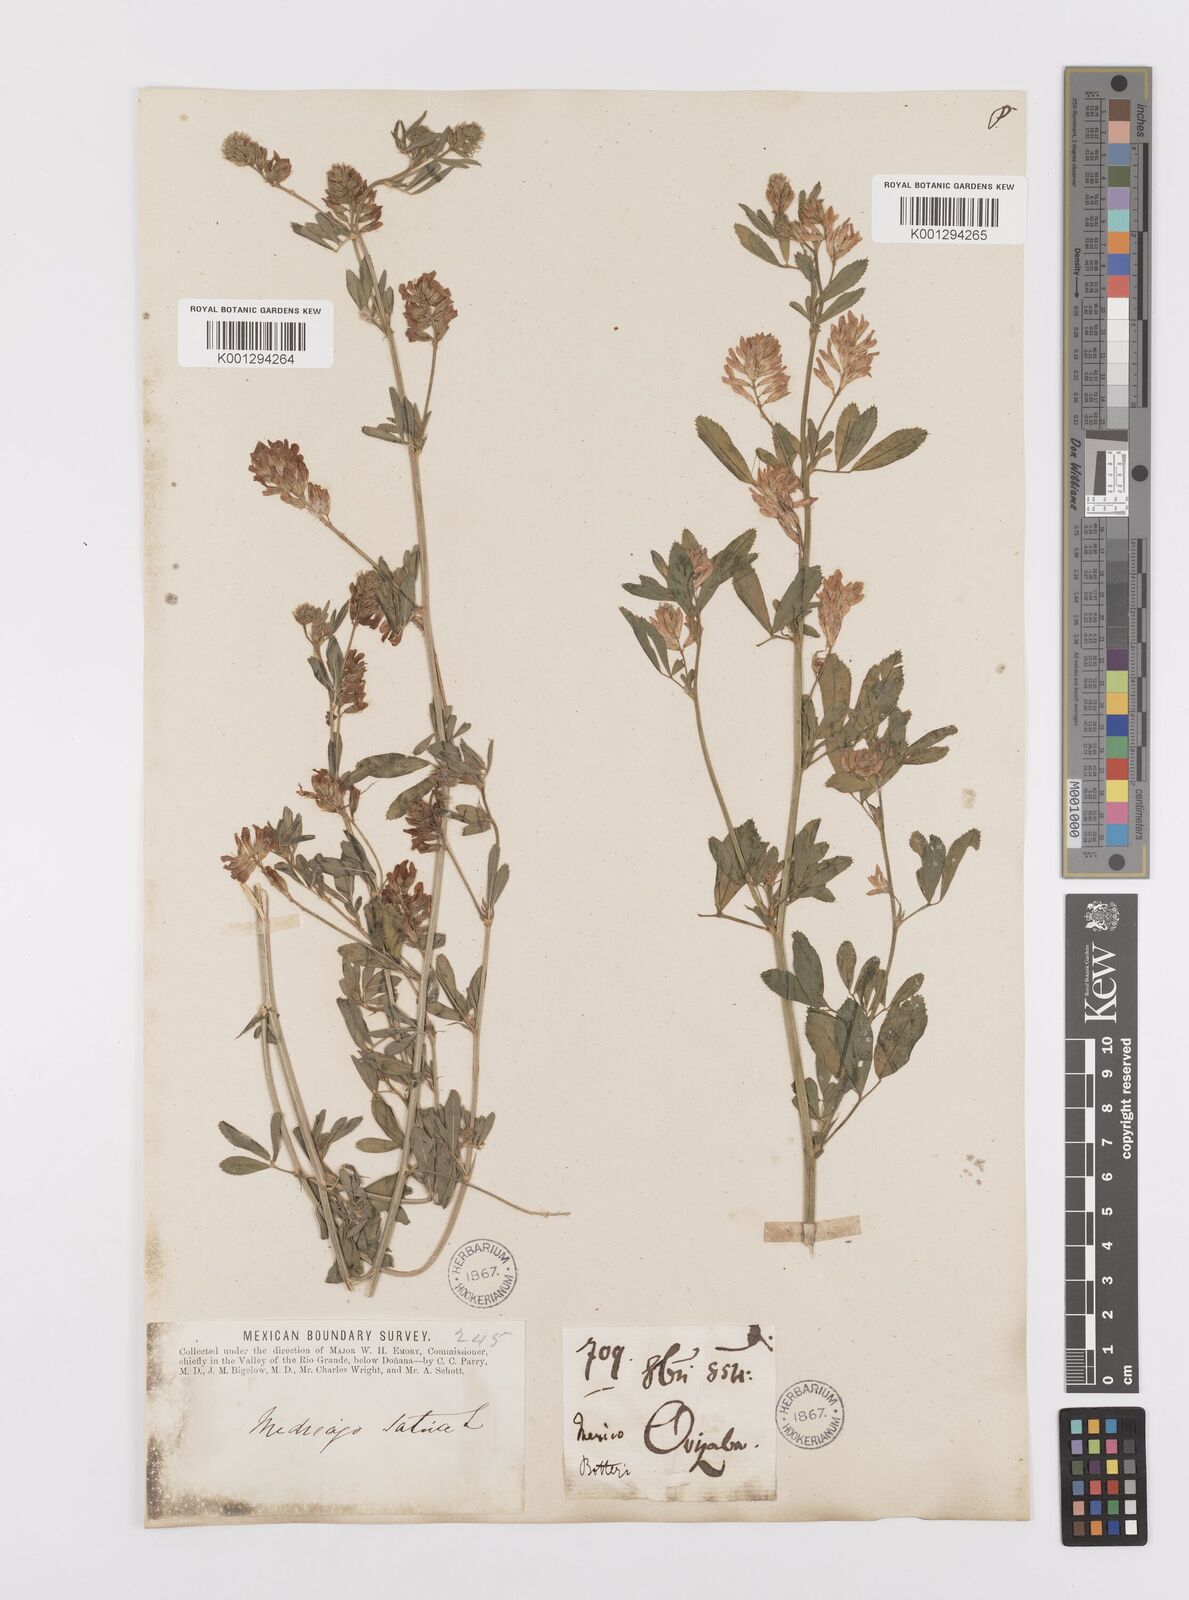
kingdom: Plantae
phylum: Tracheophyta
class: Magnoliopsida
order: Fabales
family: Fabaceae
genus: Medicago
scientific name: Medicago sativa
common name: Alfalfa
